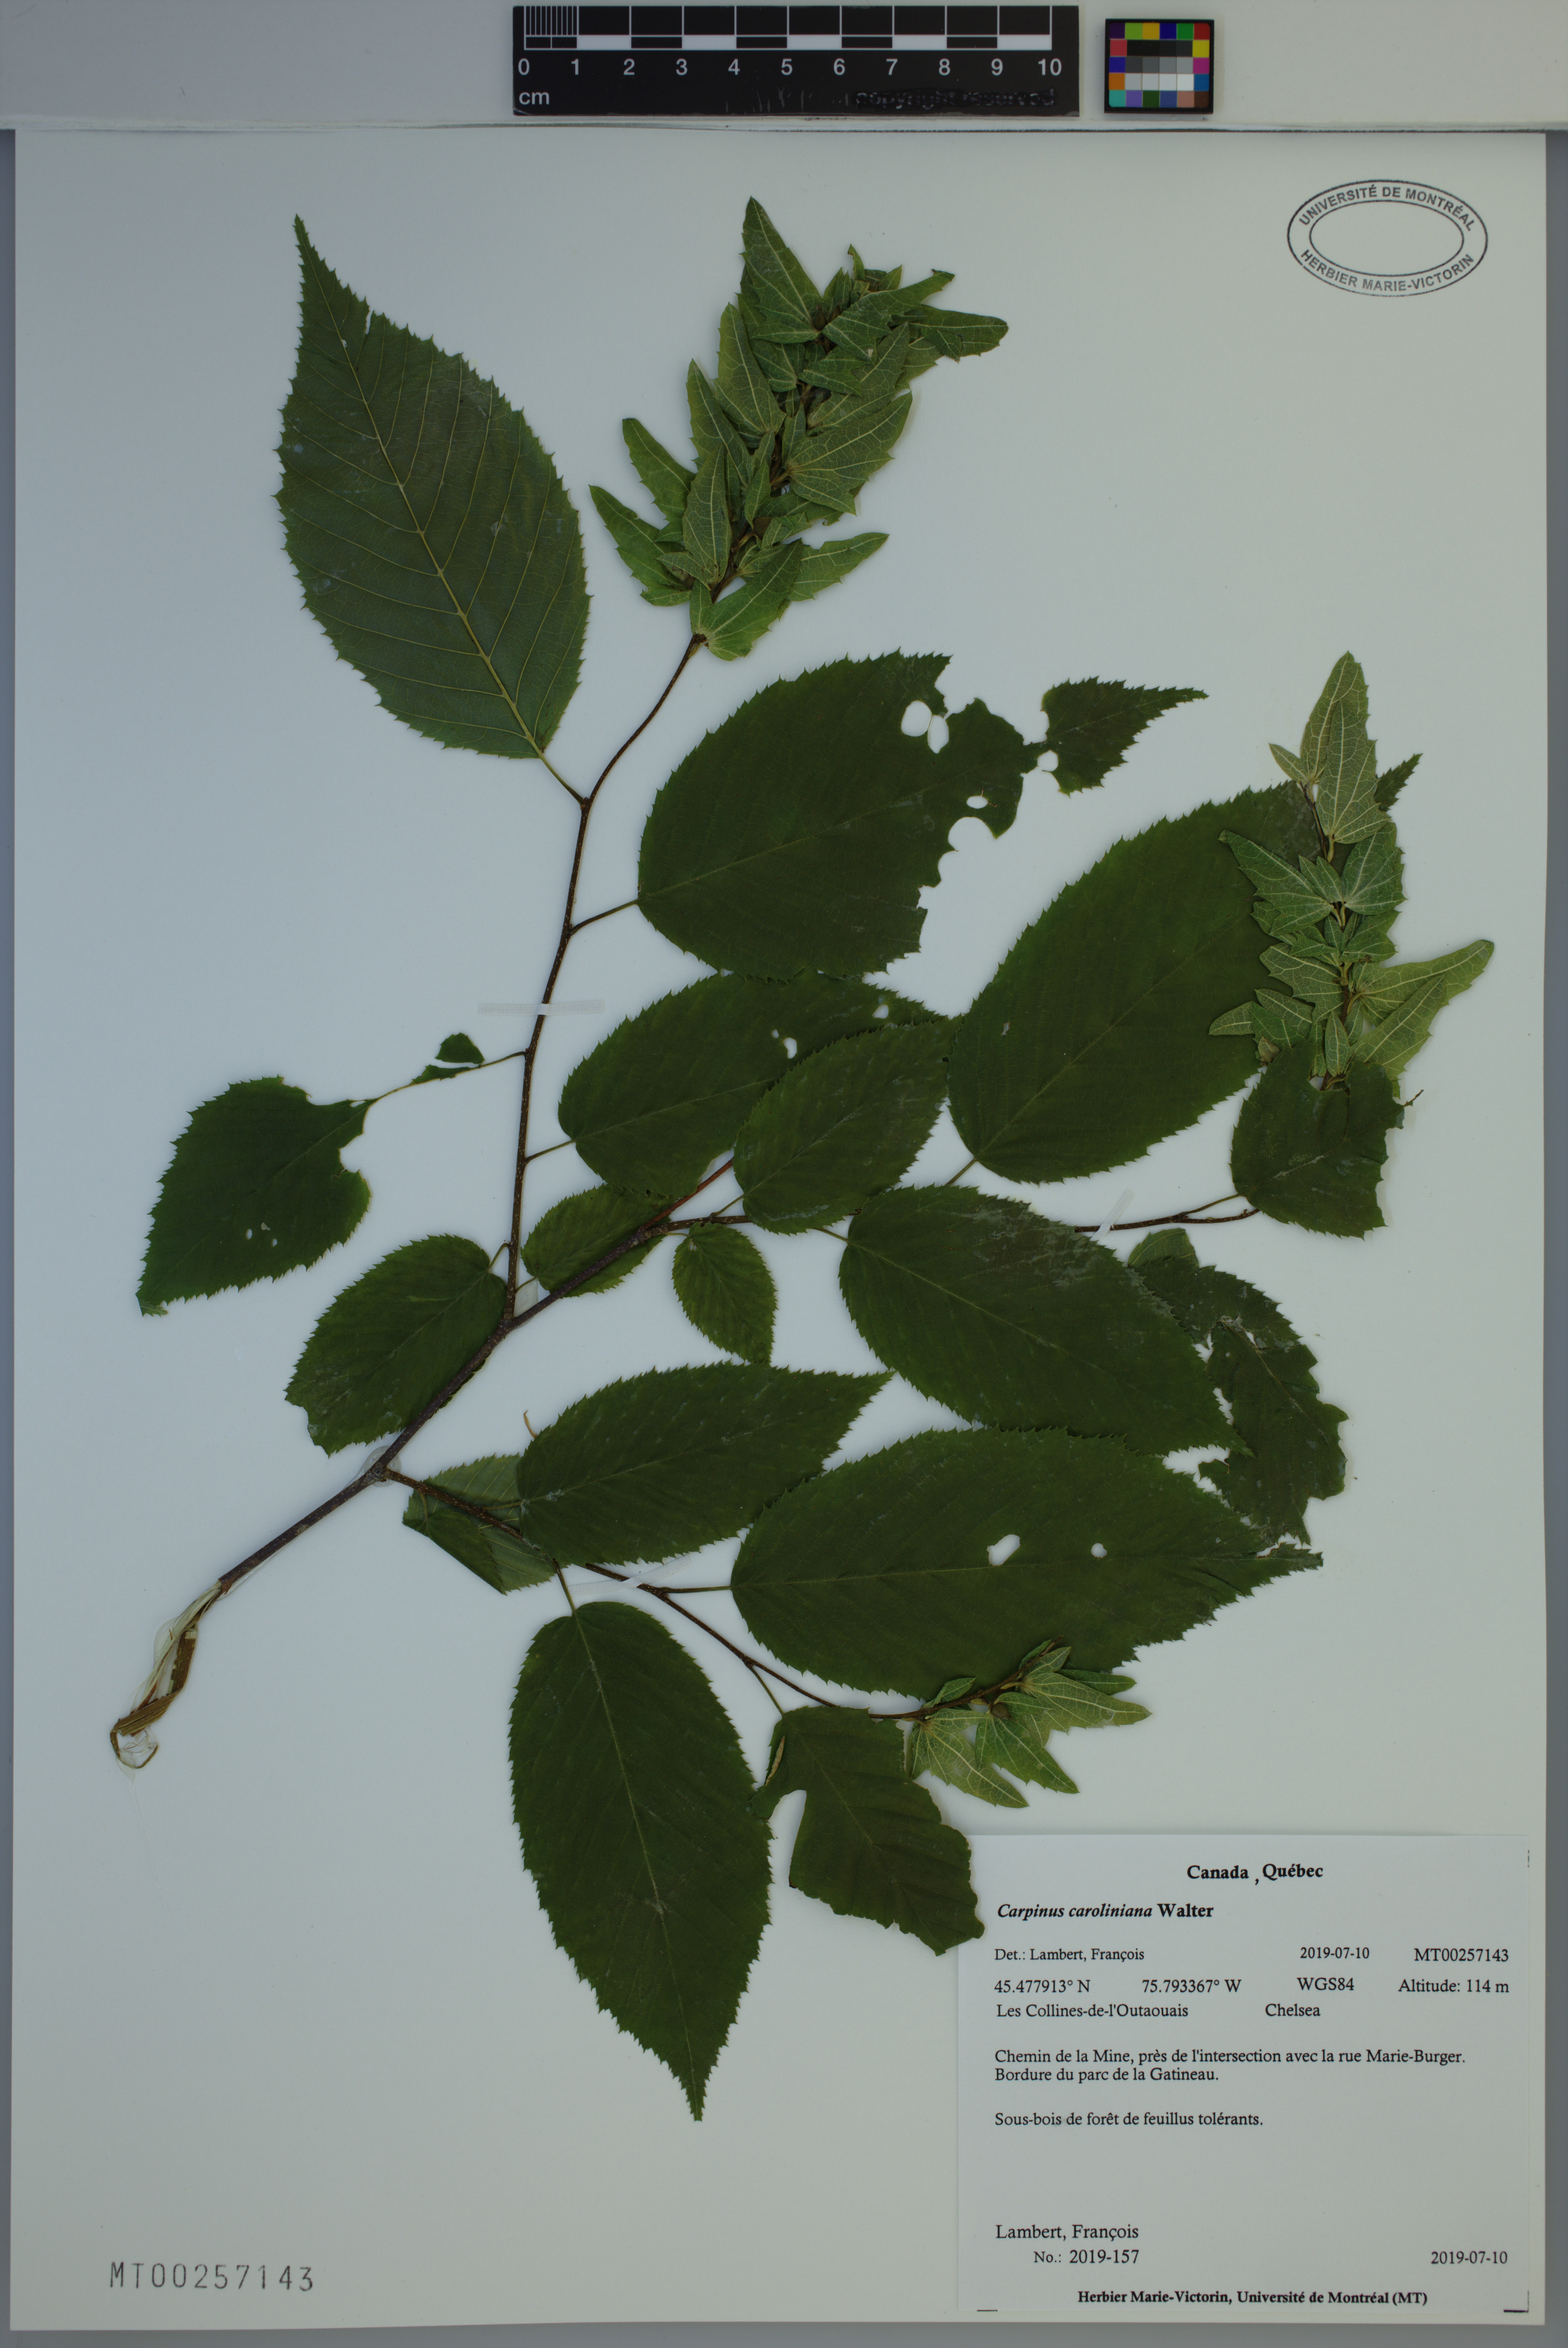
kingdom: Plantae
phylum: Tracheophyta
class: Magnoliopsida
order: Fagales
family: Betulaceae
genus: Carpinus
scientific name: Carpinus caroliniana
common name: American hornbeam
